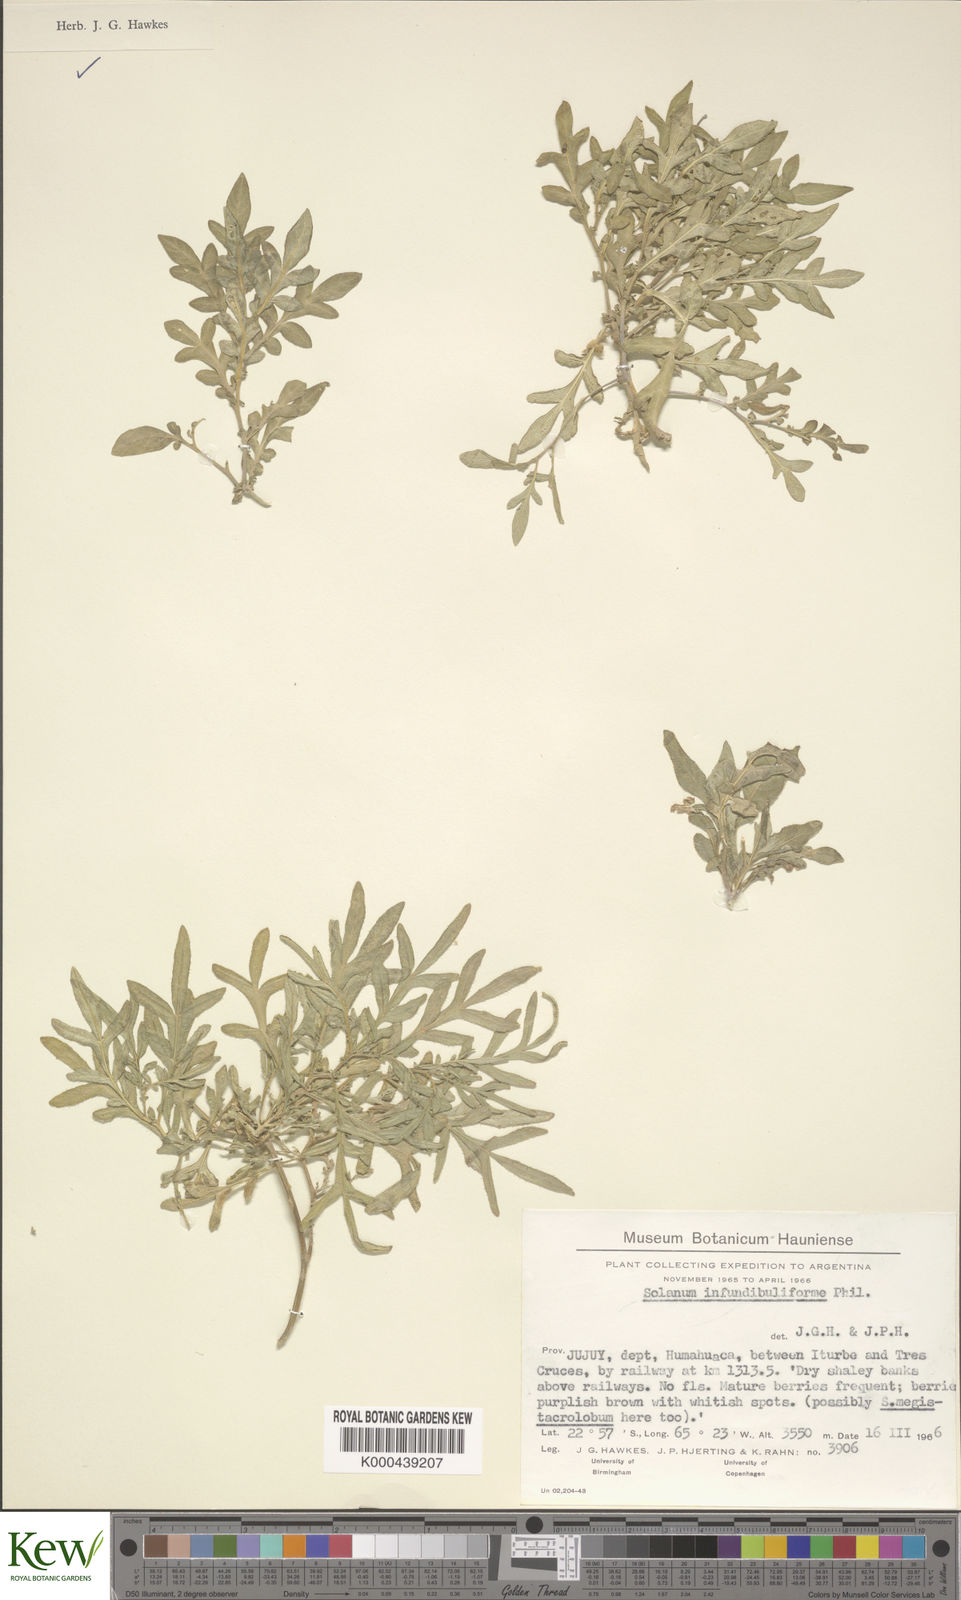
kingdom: Plantae
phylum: Tracheophyta
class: Magnoliopsida
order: Solanales
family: Solanaceae
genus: Solanum
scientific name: Solanum infundibuliforme
